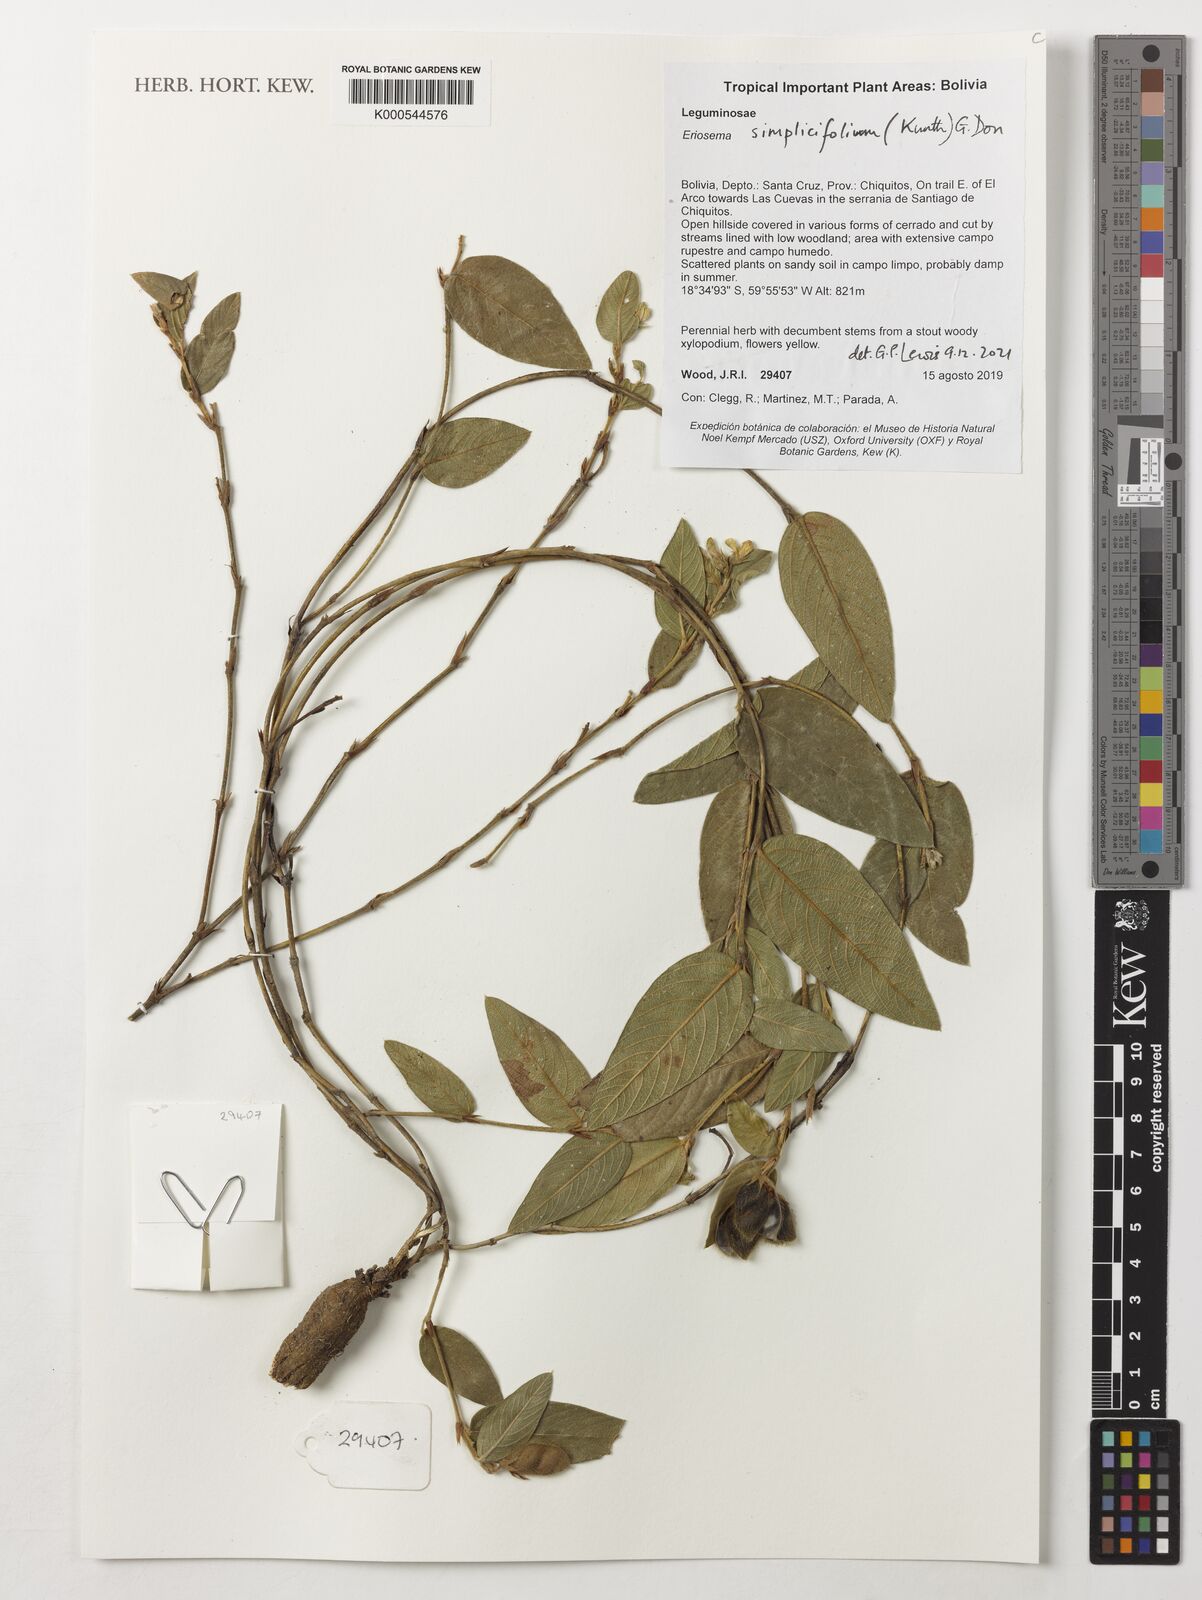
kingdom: Plantae
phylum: Tracheophyta
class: Magnoliopsida
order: Fabales
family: Fabaceae
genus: Eriosema
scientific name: Eriosema simplicifolium
